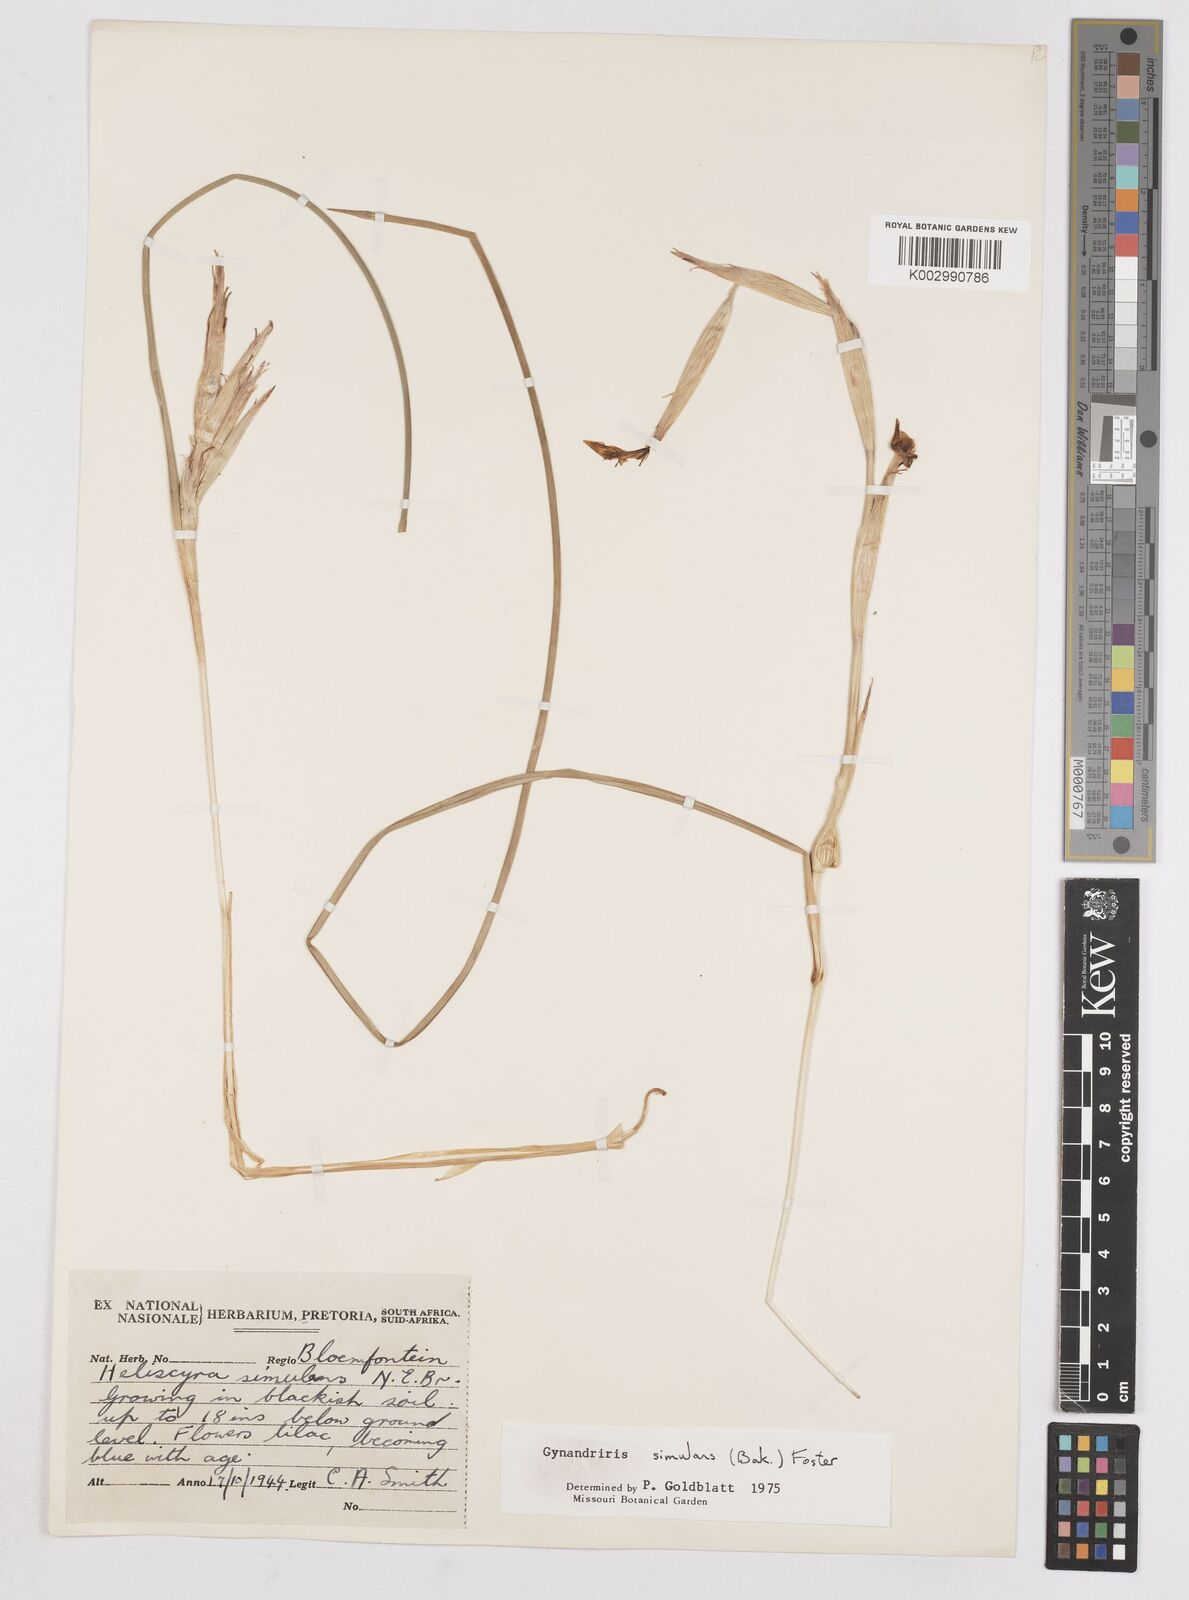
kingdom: Plantae
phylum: Tracheophyta
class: Liliopsida
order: Asparagales
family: Iridaceae
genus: Moraea
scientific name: Moraea simulans
